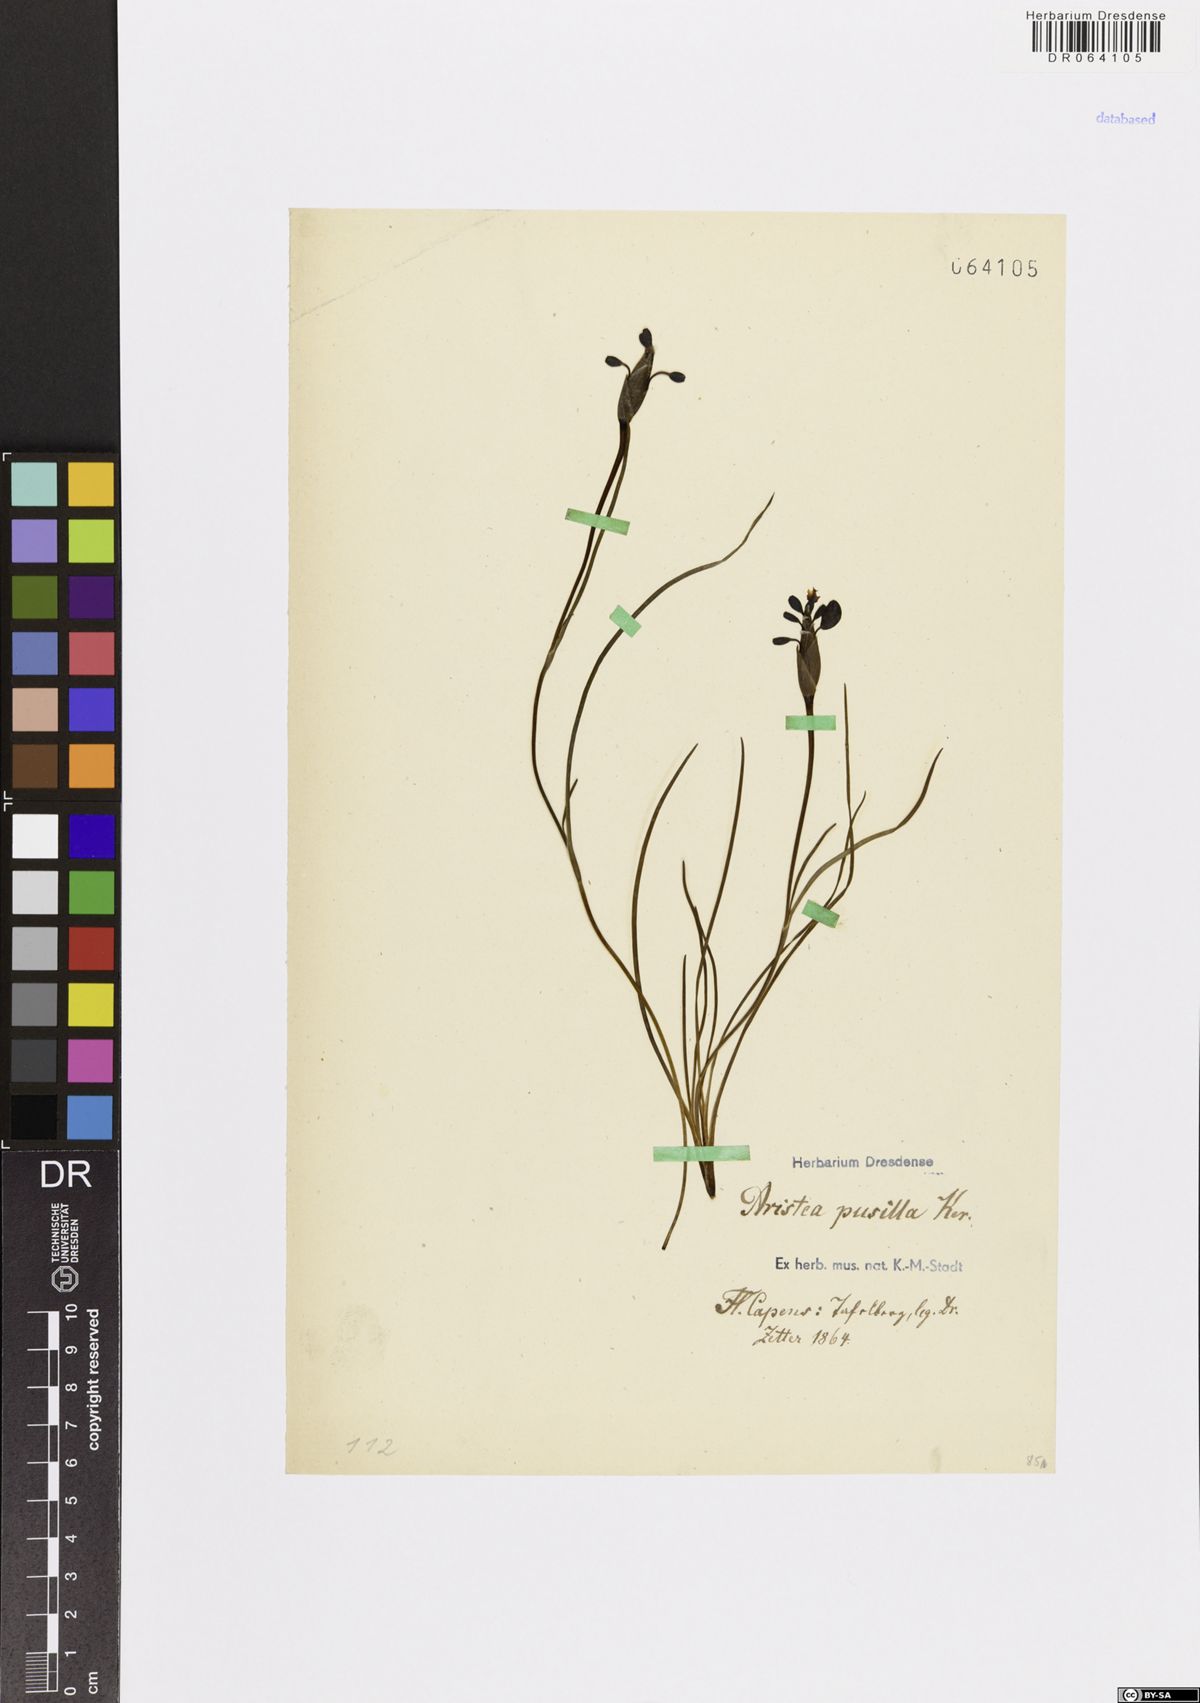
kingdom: Plantae
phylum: Tracheophyta
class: Liliopsida
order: Asparagales
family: Iridaceae
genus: Aristea
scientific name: Aristea pusilla
